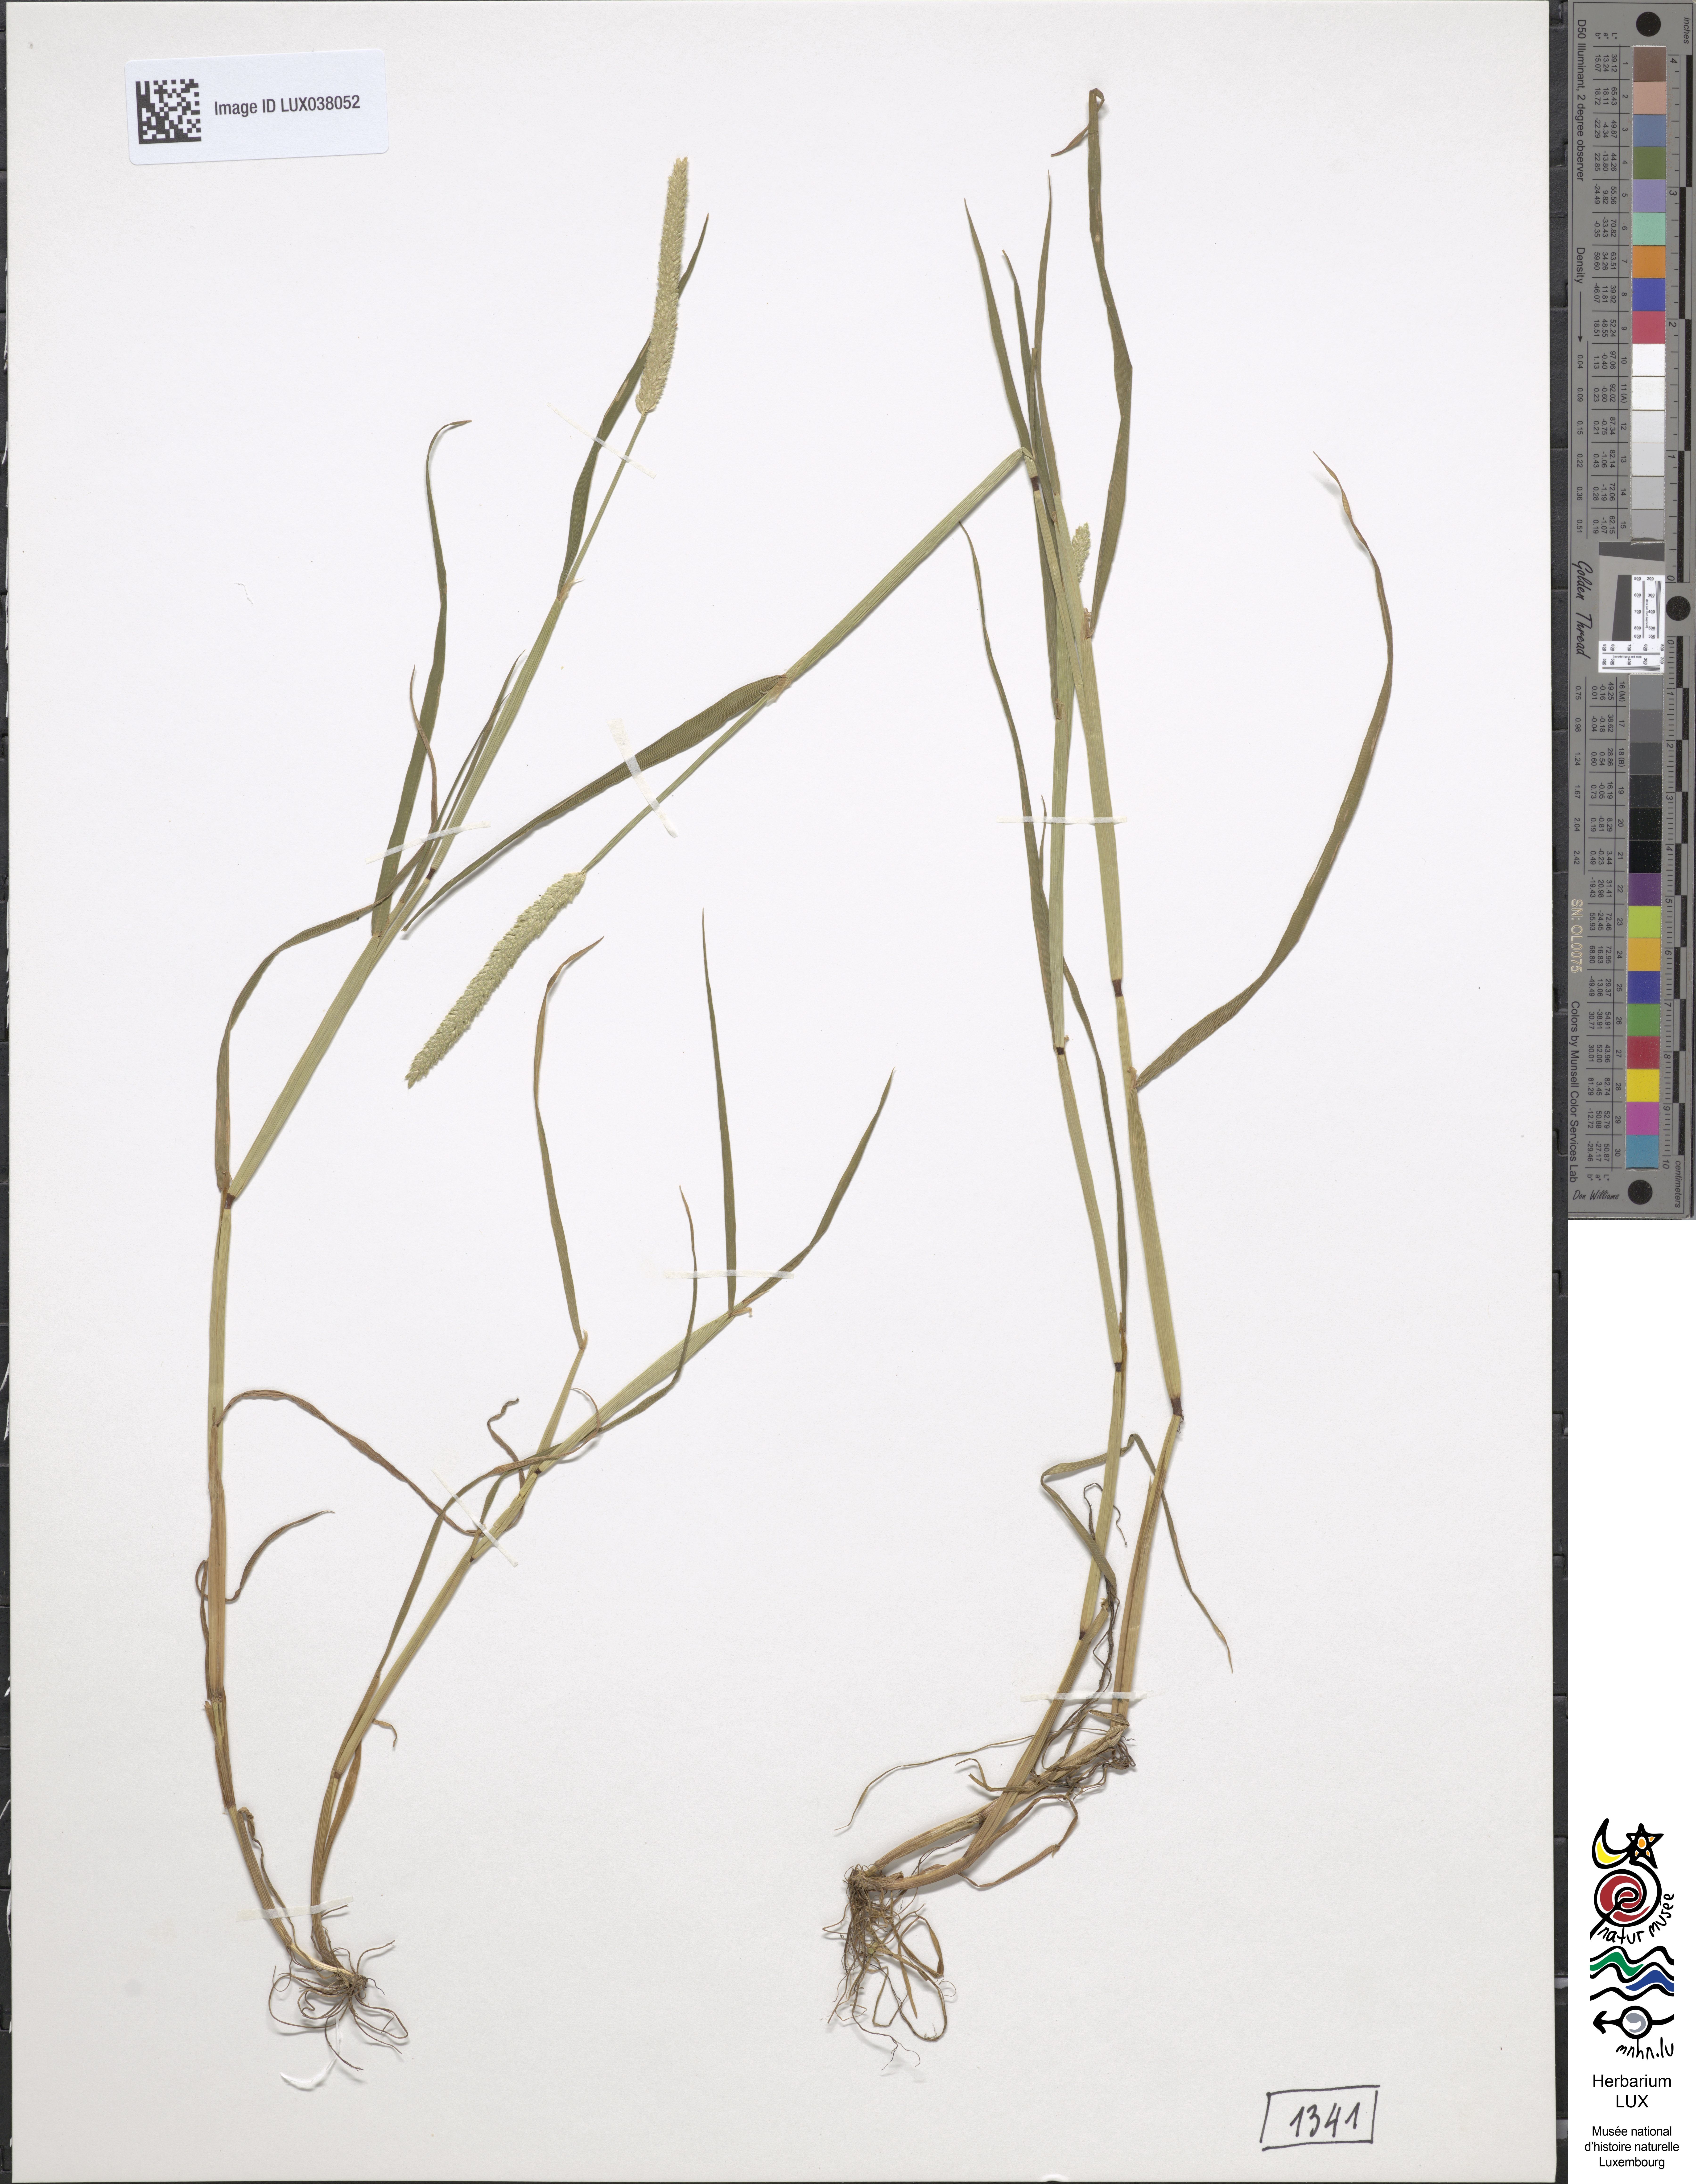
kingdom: Plantae
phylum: Tracheophyta
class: Liliopsida
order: Poales
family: Poaceae
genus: Alopecurus
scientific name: Alopecurus aequalis
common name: Orange foxtail
